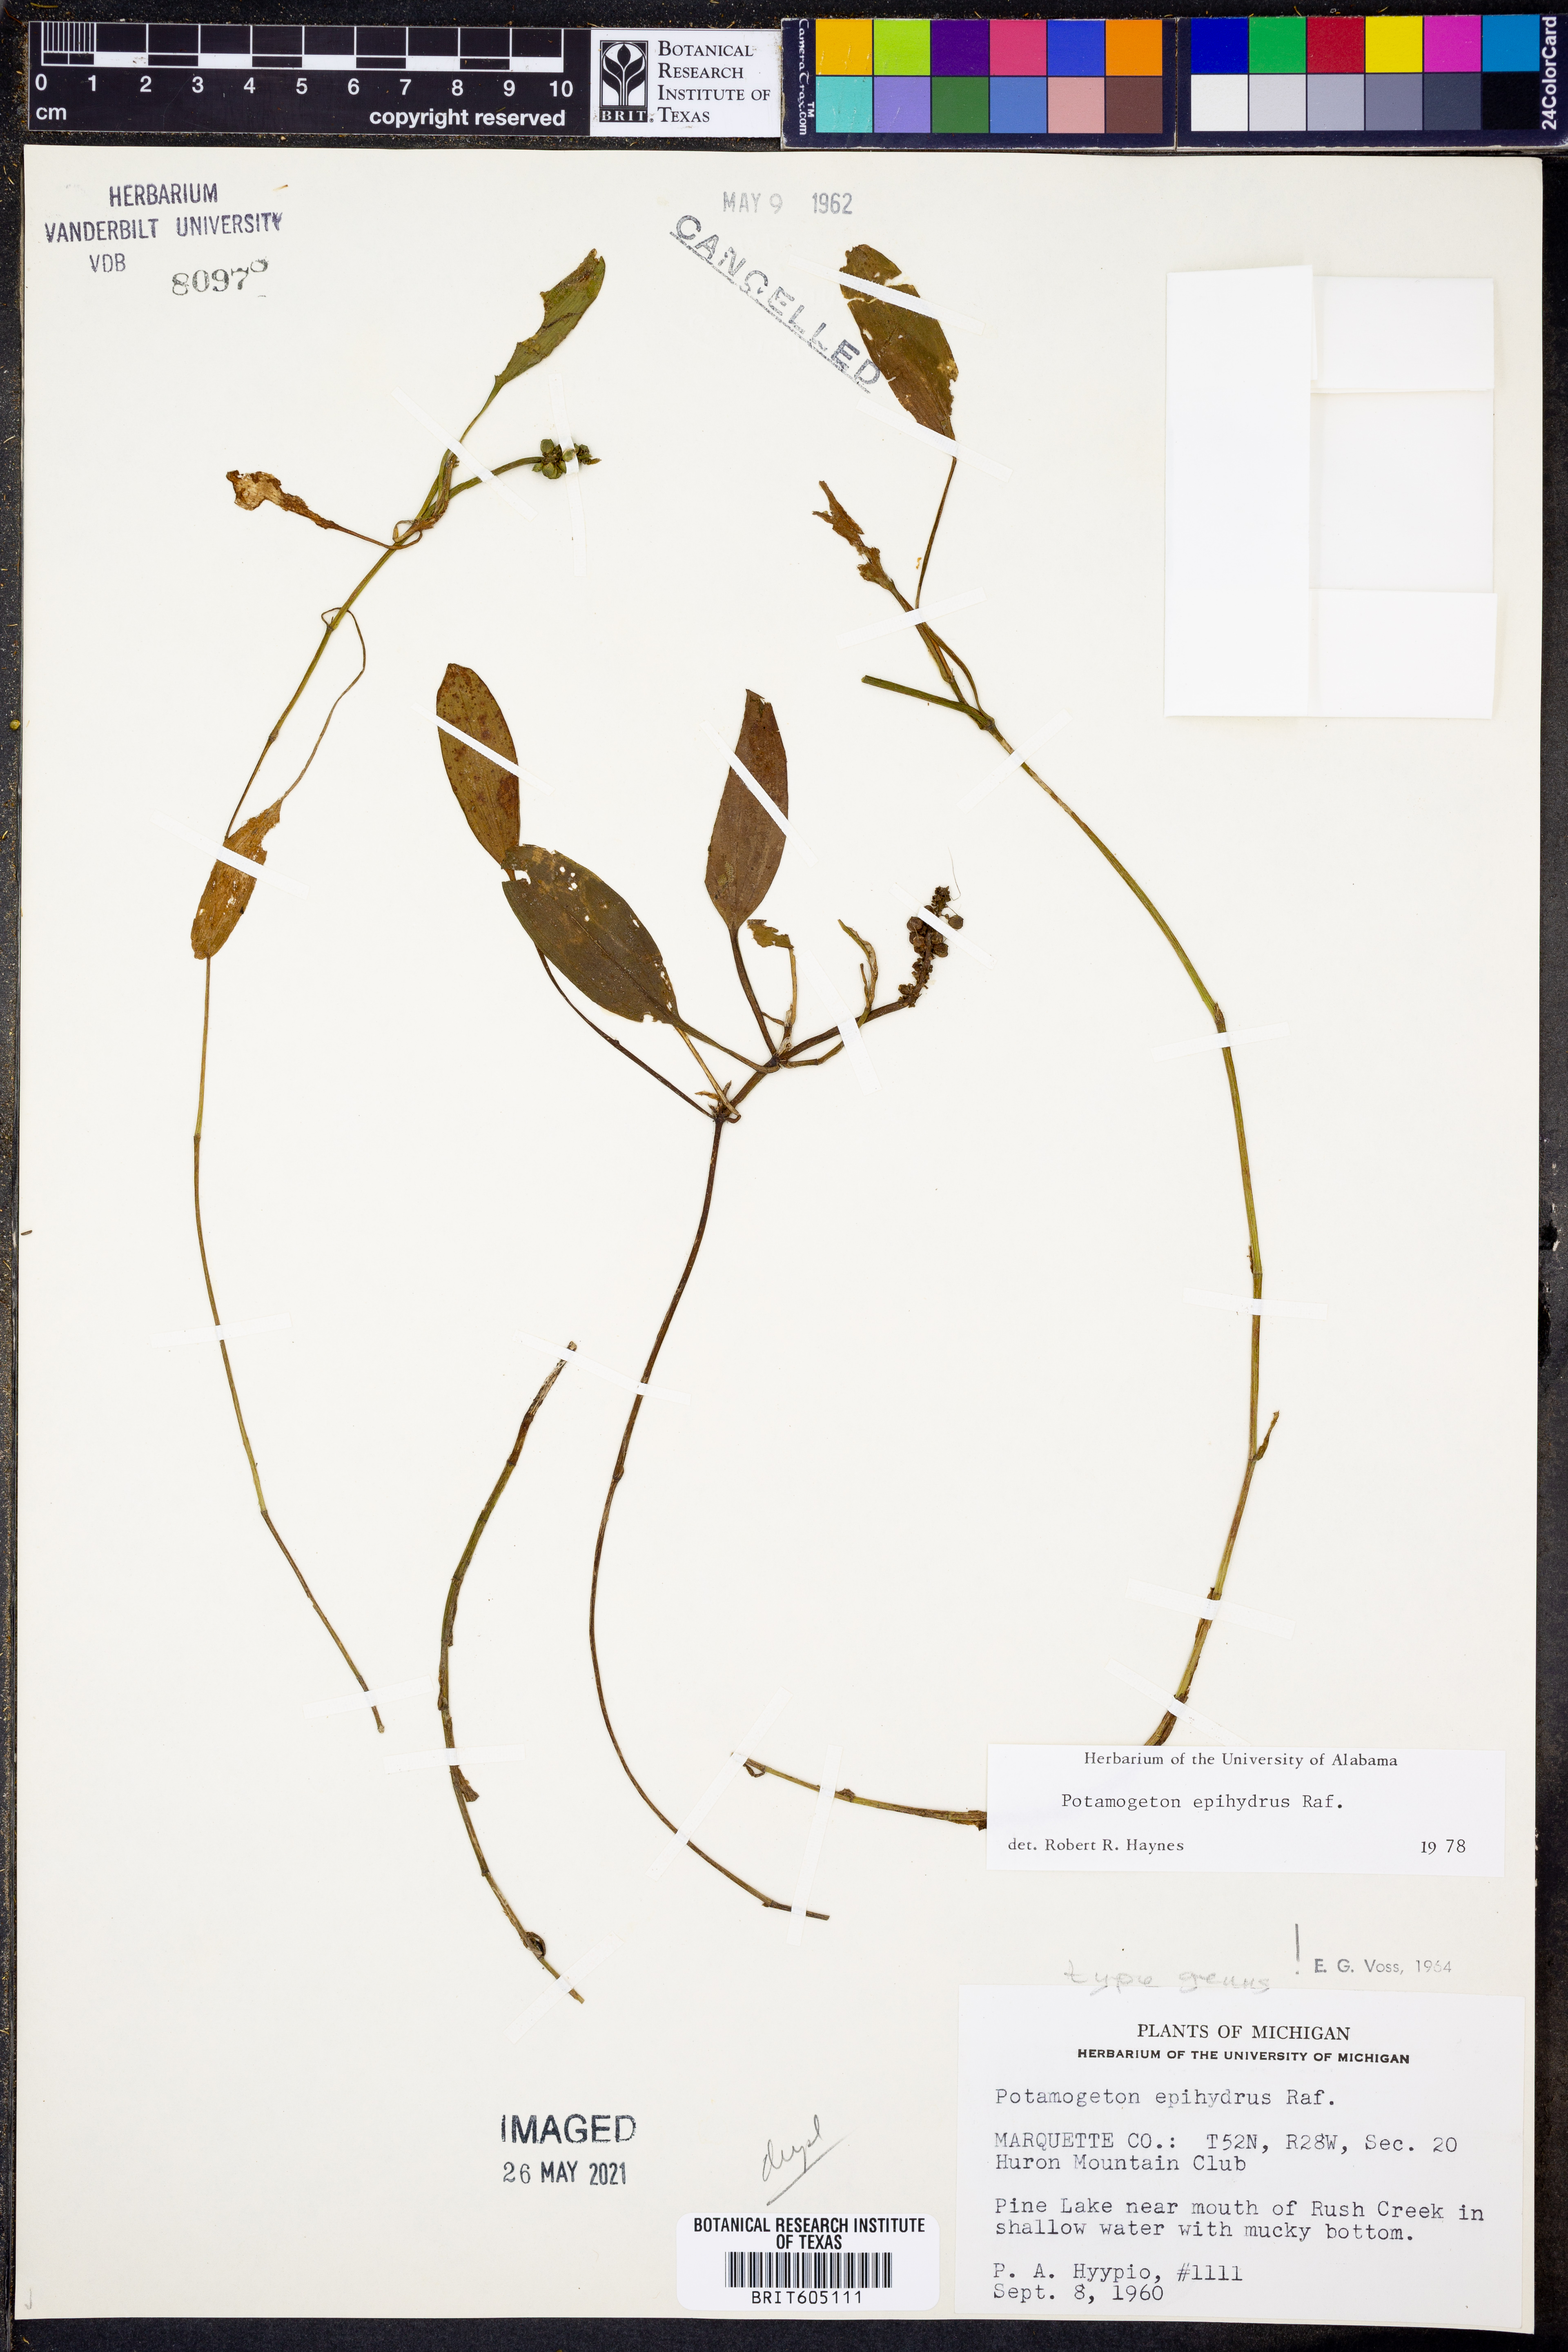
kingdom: Plantae
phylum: Tracheophyta
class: Liliopsida
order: Alismatales
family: Potamogetonaceae
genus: Potamogeton
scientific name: Potamogeton epihydrus
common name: American pondweed
